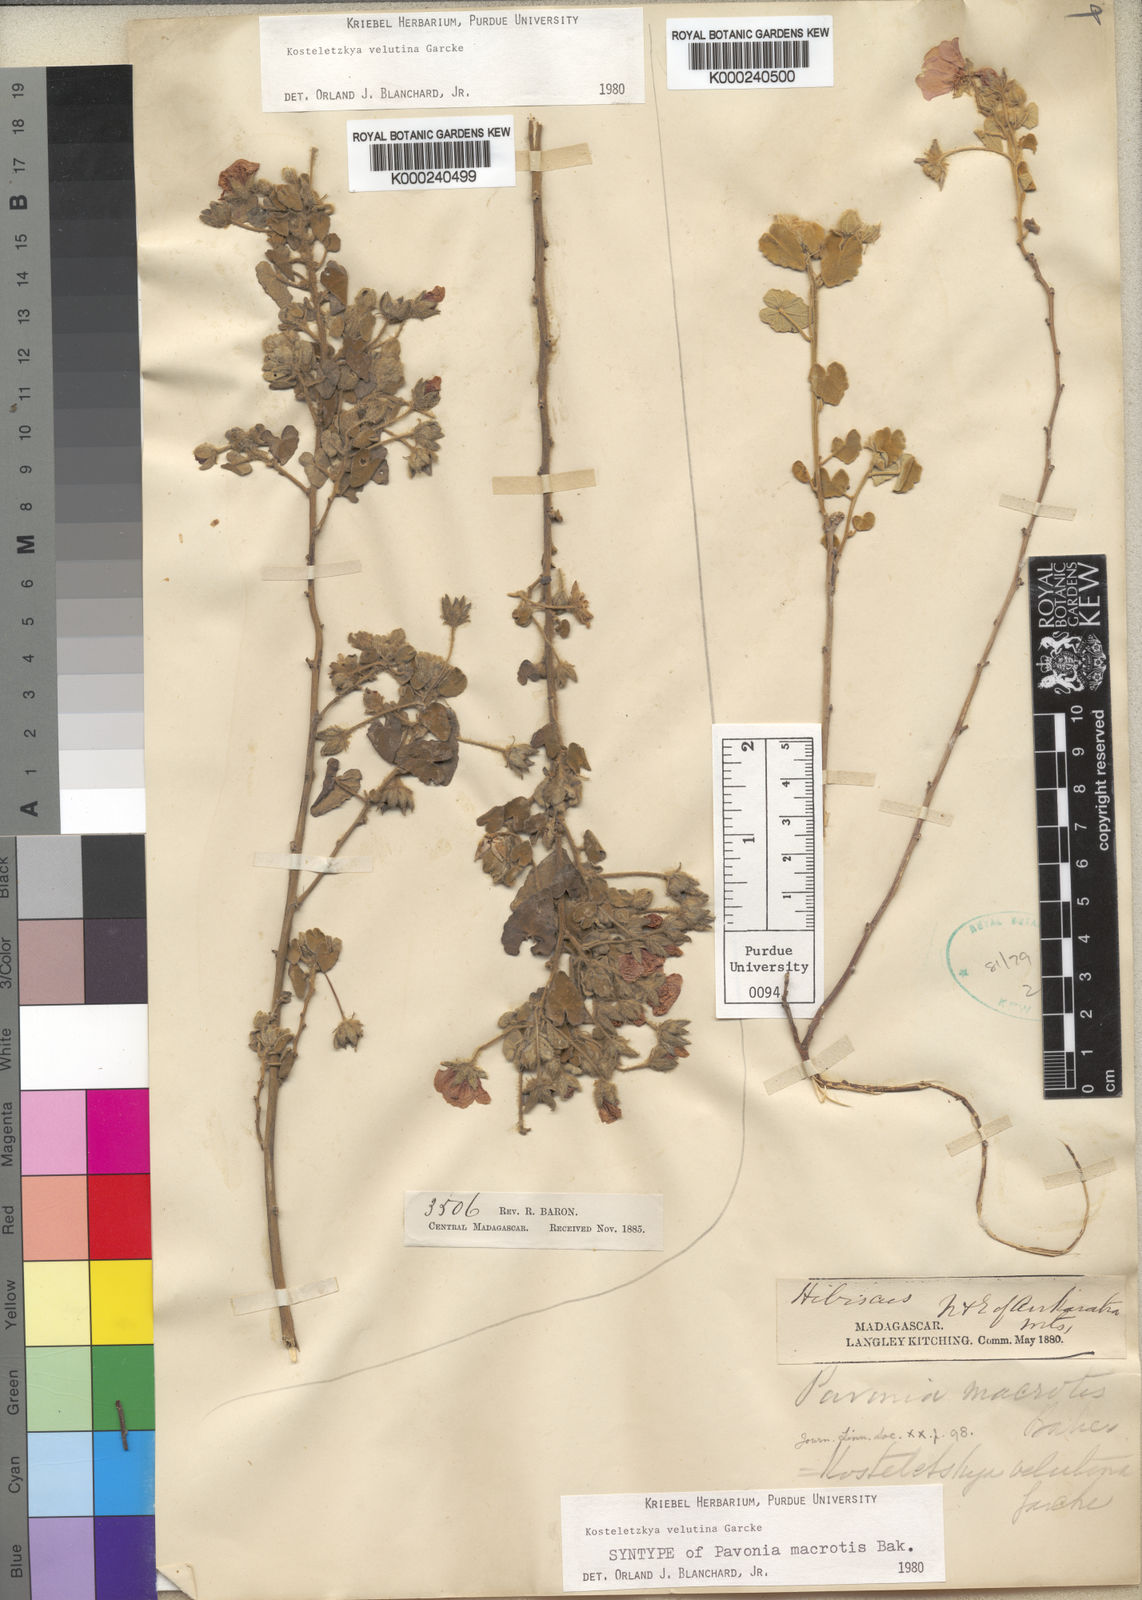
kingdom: Plantae
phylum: Tracheophyta
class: Magnoliopsida
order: Malvales
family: Malvaceae
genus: Perrierophytum
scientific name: Perrierophytum velutinum
